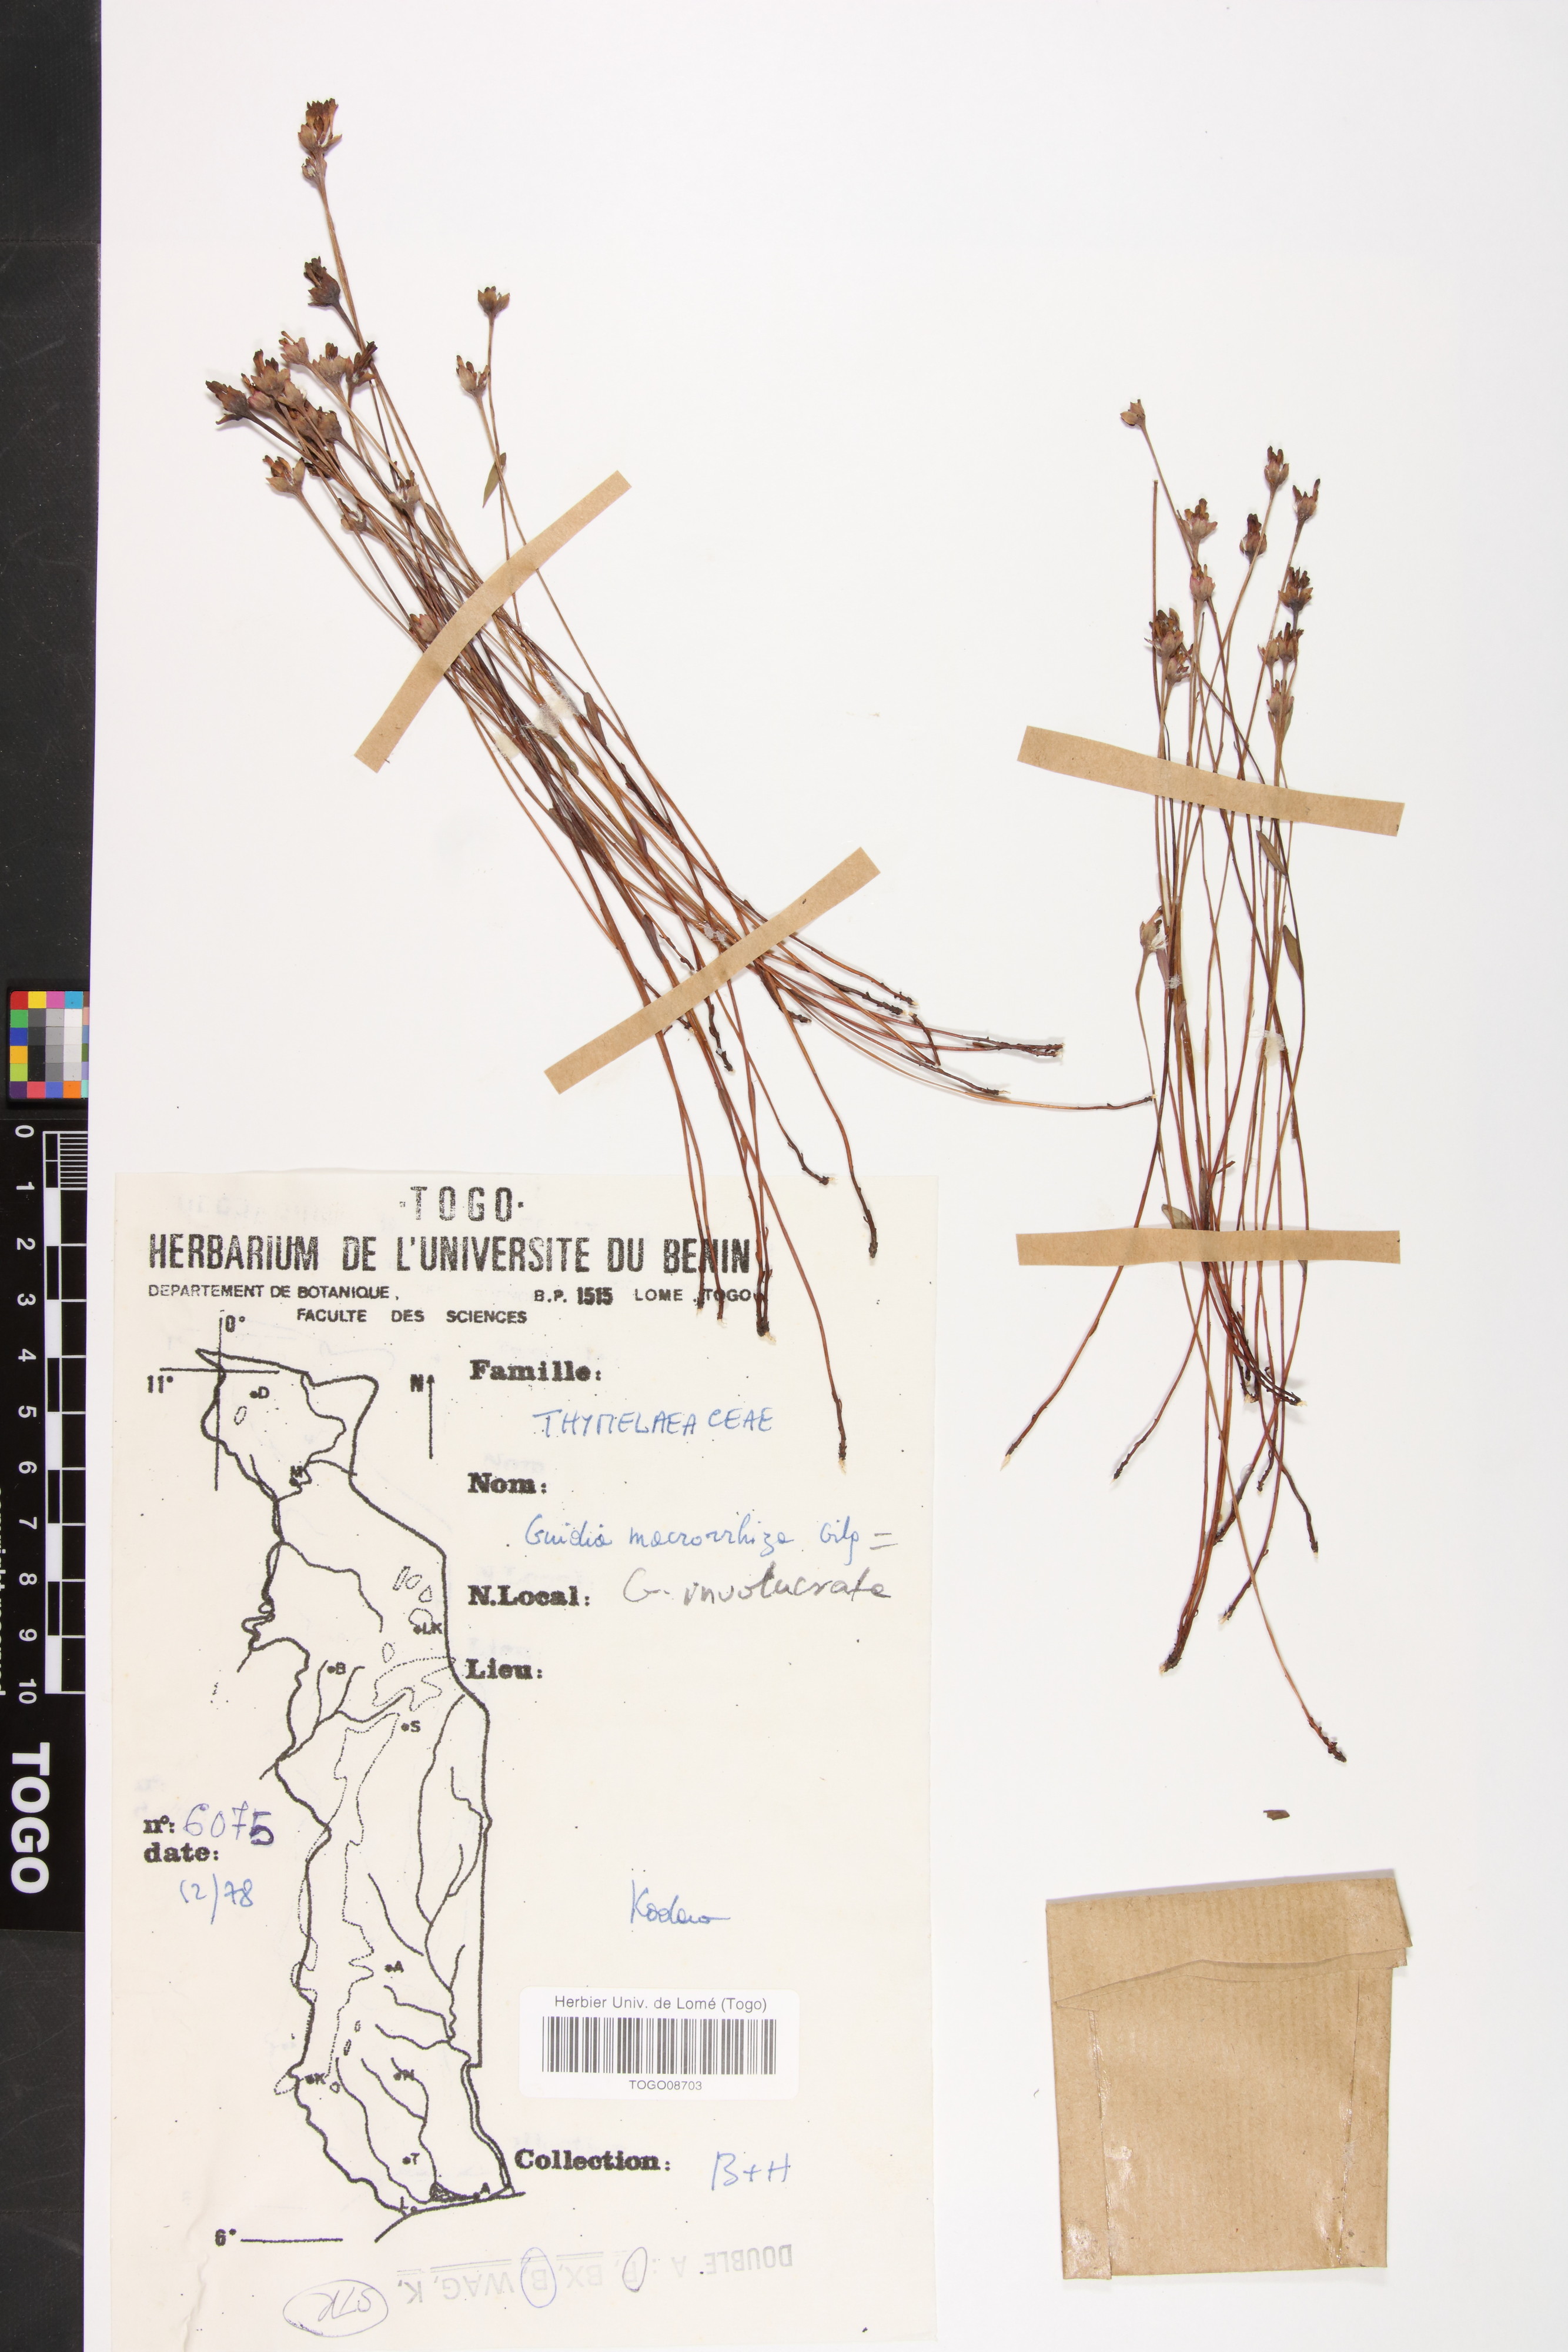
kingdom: Plantae
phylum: Tracheophyta
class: Magnoliopsida
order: Malvales
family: Thymelaeaceae
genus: Gnidia
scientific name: Gnidia involucrata
